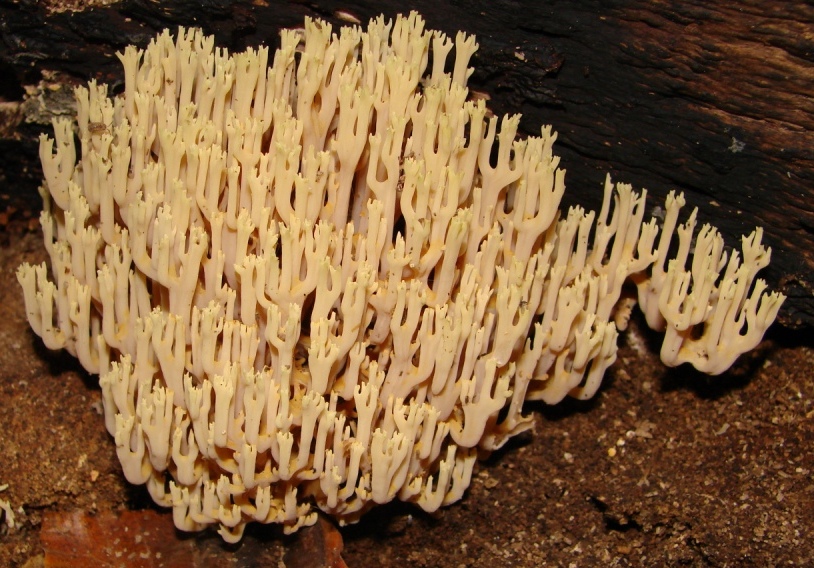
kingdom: Fungi
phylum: Basidiomycota
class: Agaricomycetes
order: Gomphales
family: Gomphaceae
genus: Ramaria
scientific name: Ramaria stricta
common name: rank koralsvamp
